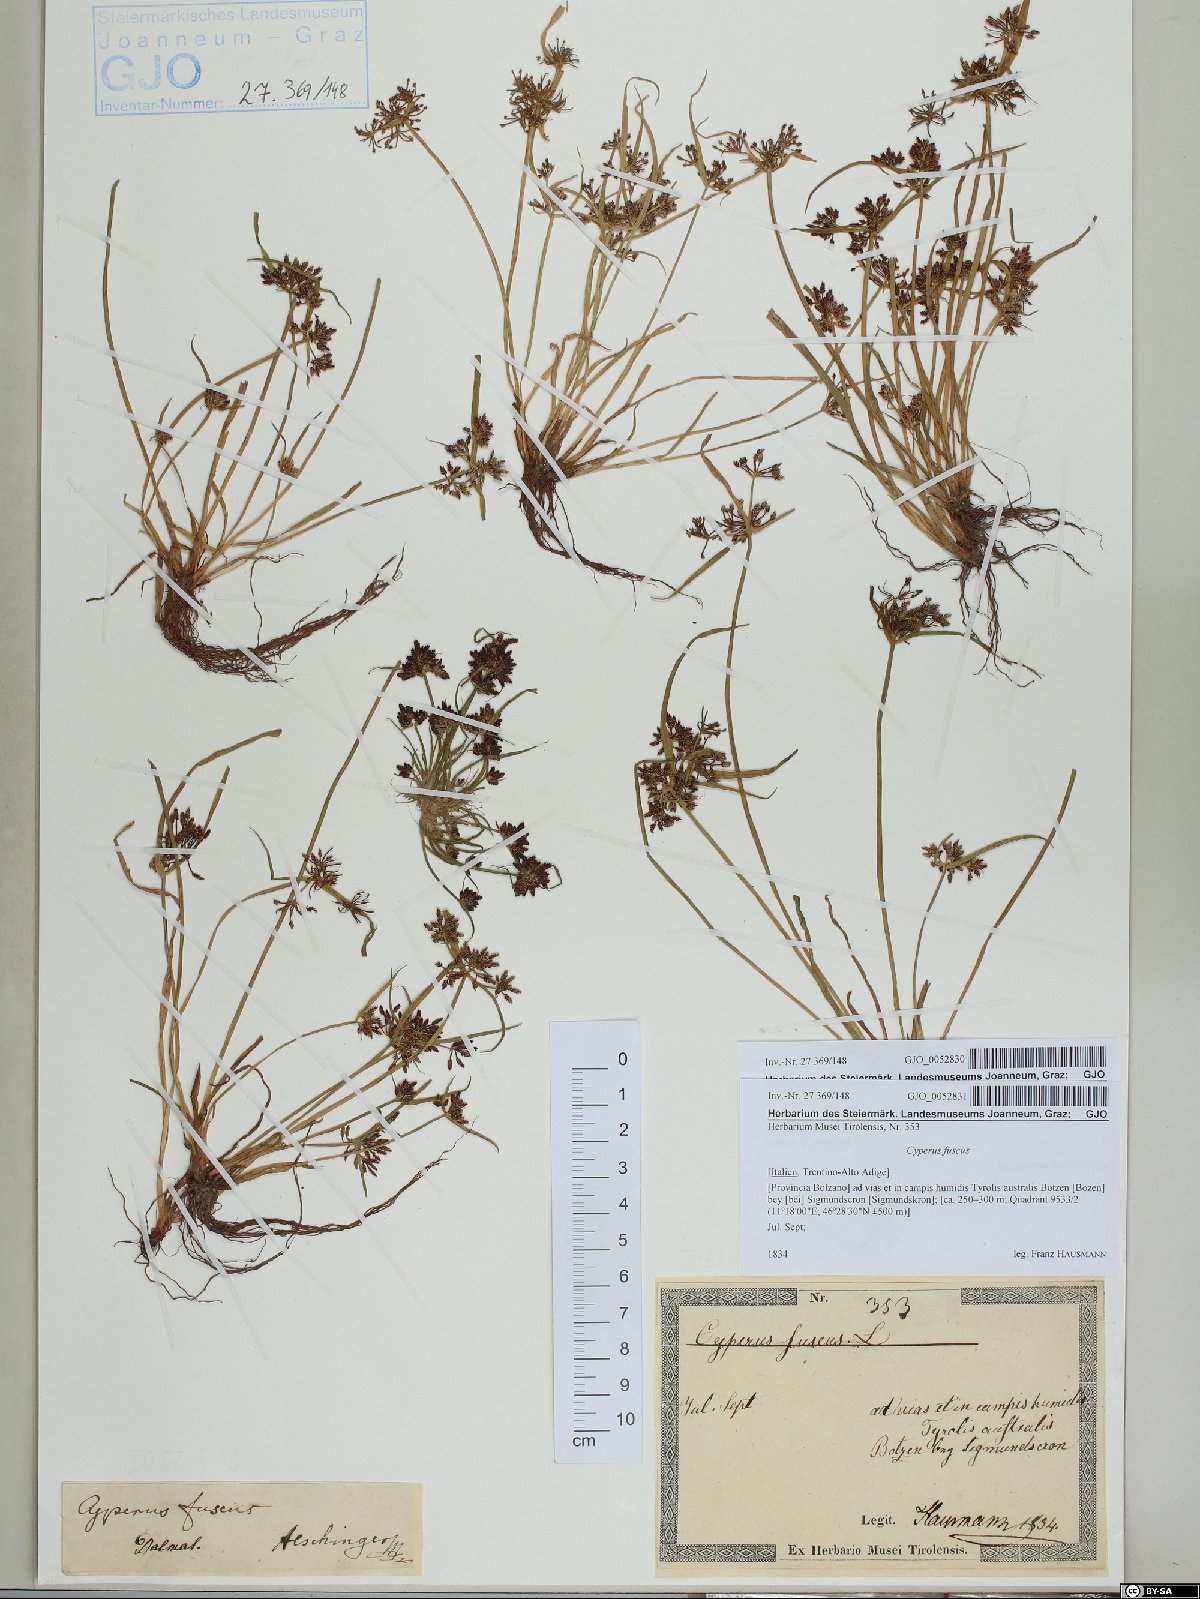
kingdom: Plantae
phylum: Tracheophyta
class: Liliopsida
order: Poales
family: Cyperaceae
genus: Cyperus
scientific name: Cyperus fuscus
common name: Brown galingale
